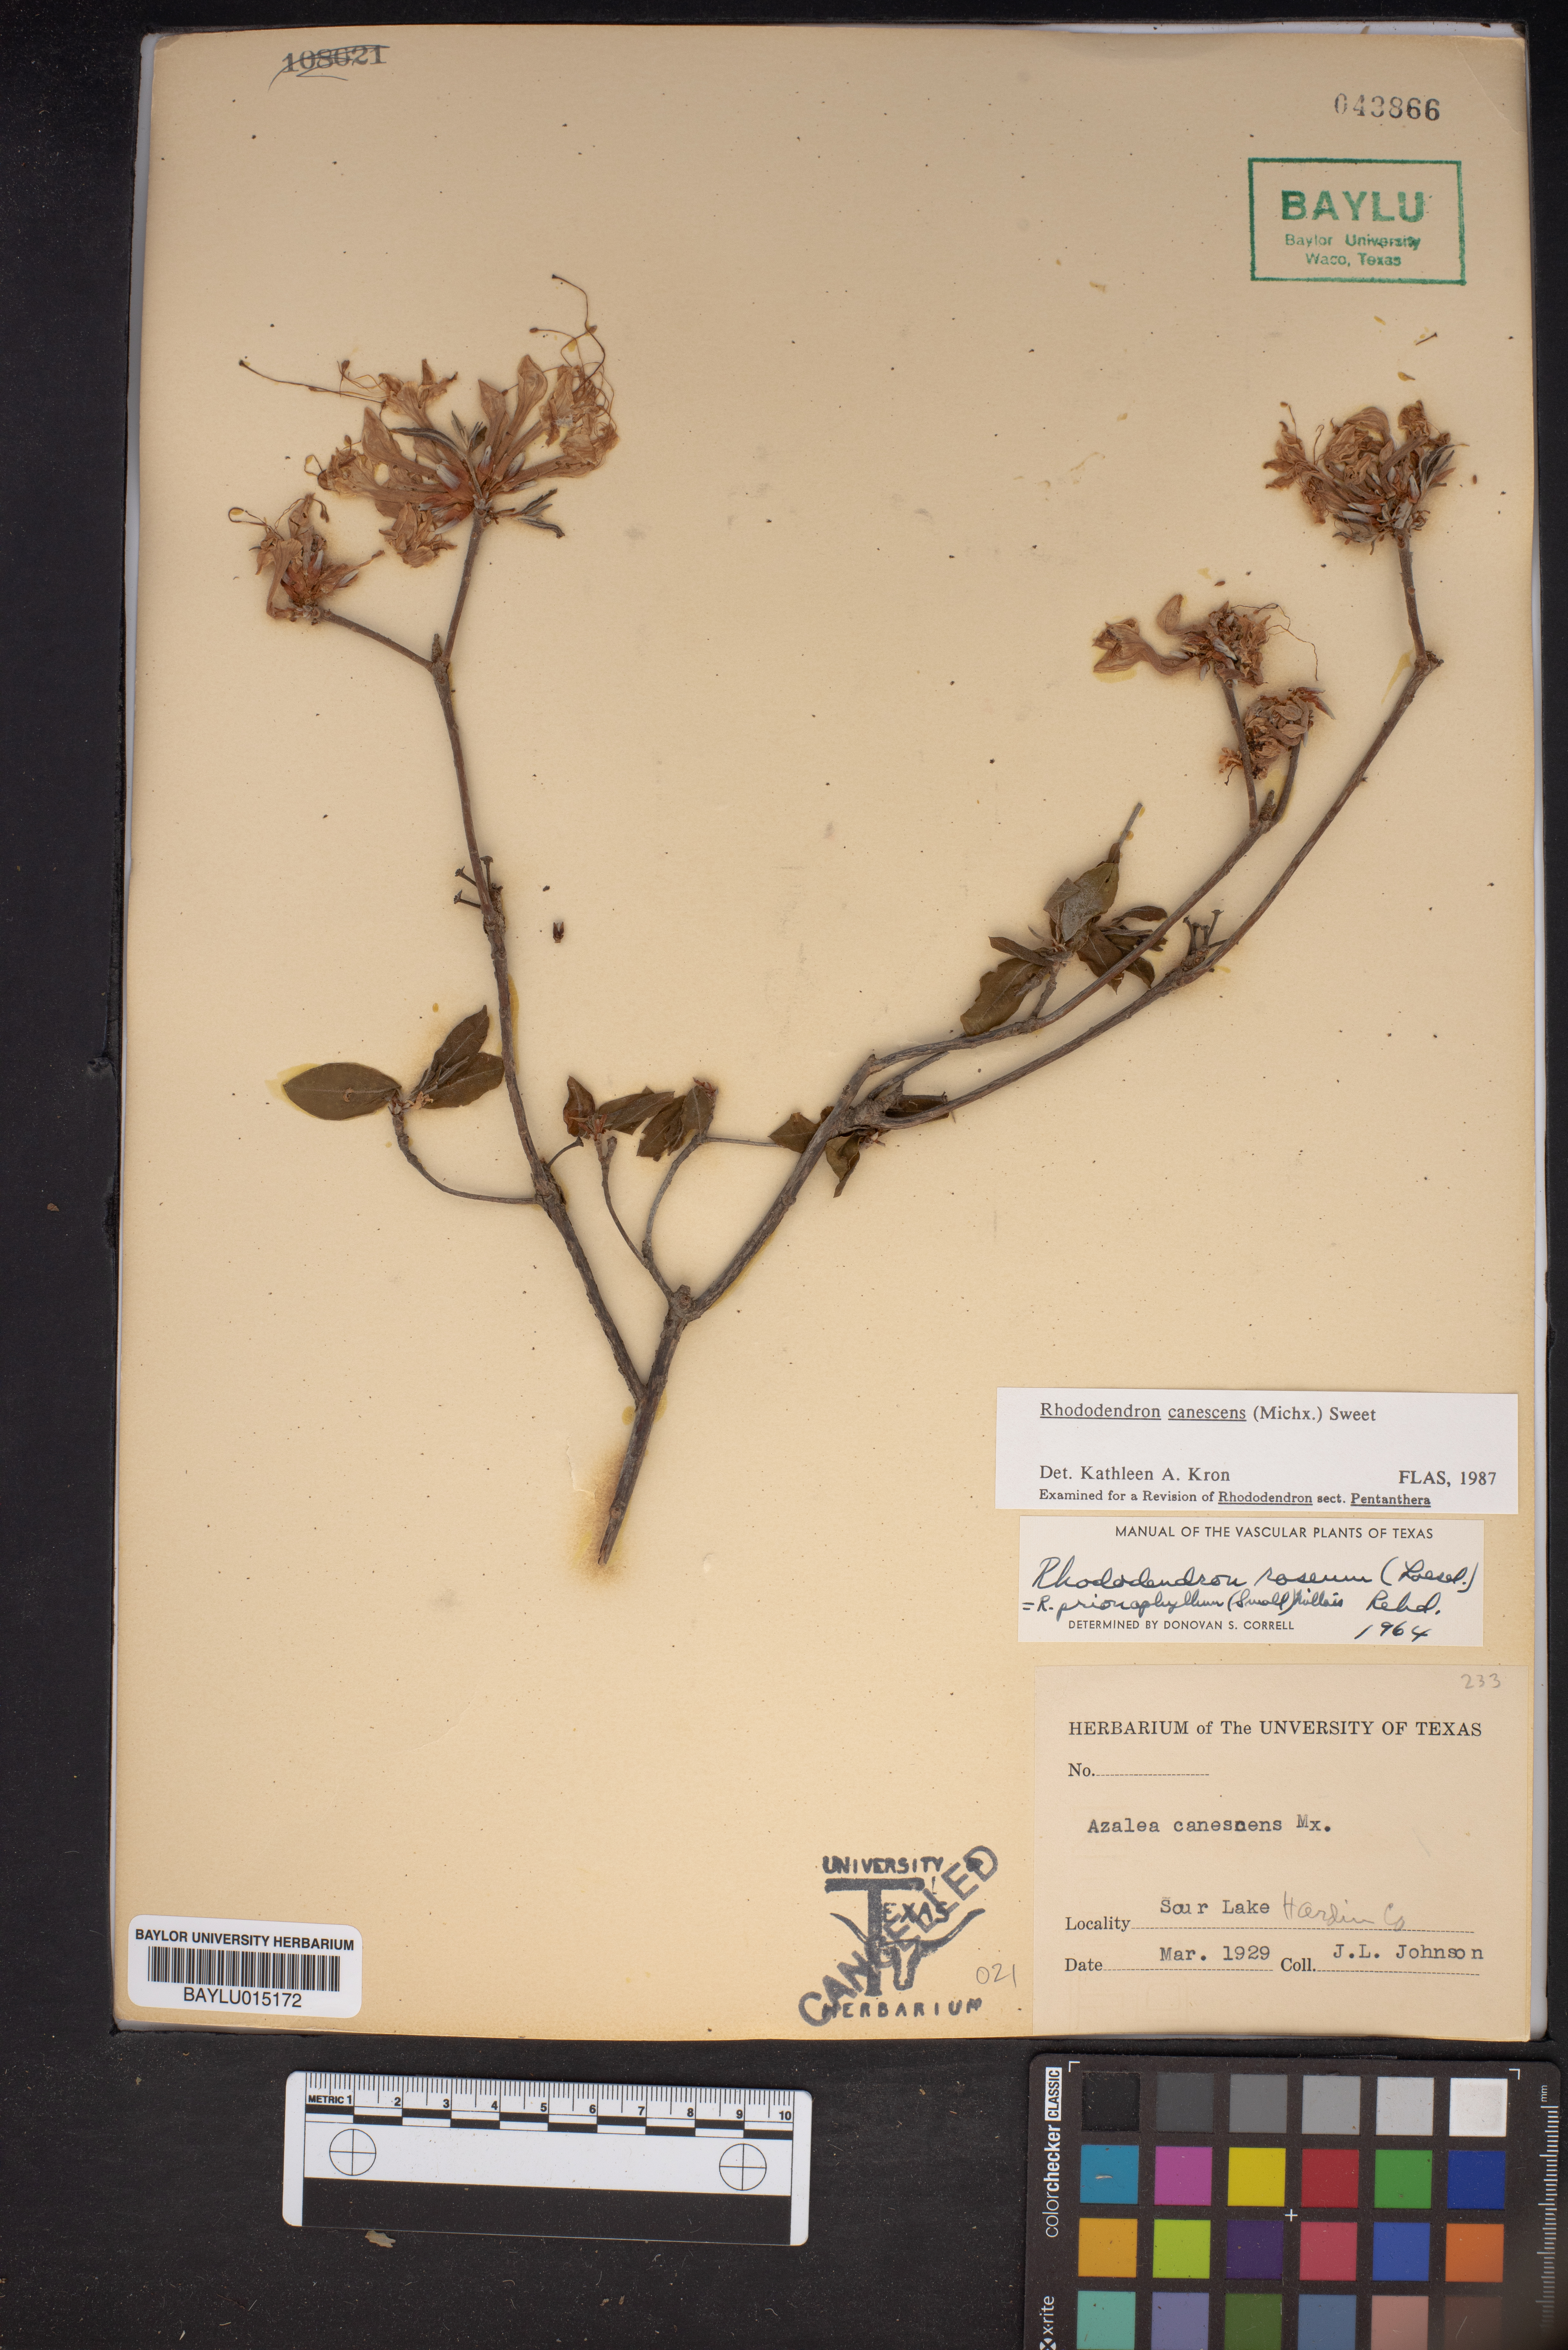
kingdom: Plantae
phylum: Tracheophyta
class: Magnoliopsida
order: Ericales
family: Ericaceae
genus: Rhododendron
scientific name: Rhododendron canescens
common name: Mountain azalea
